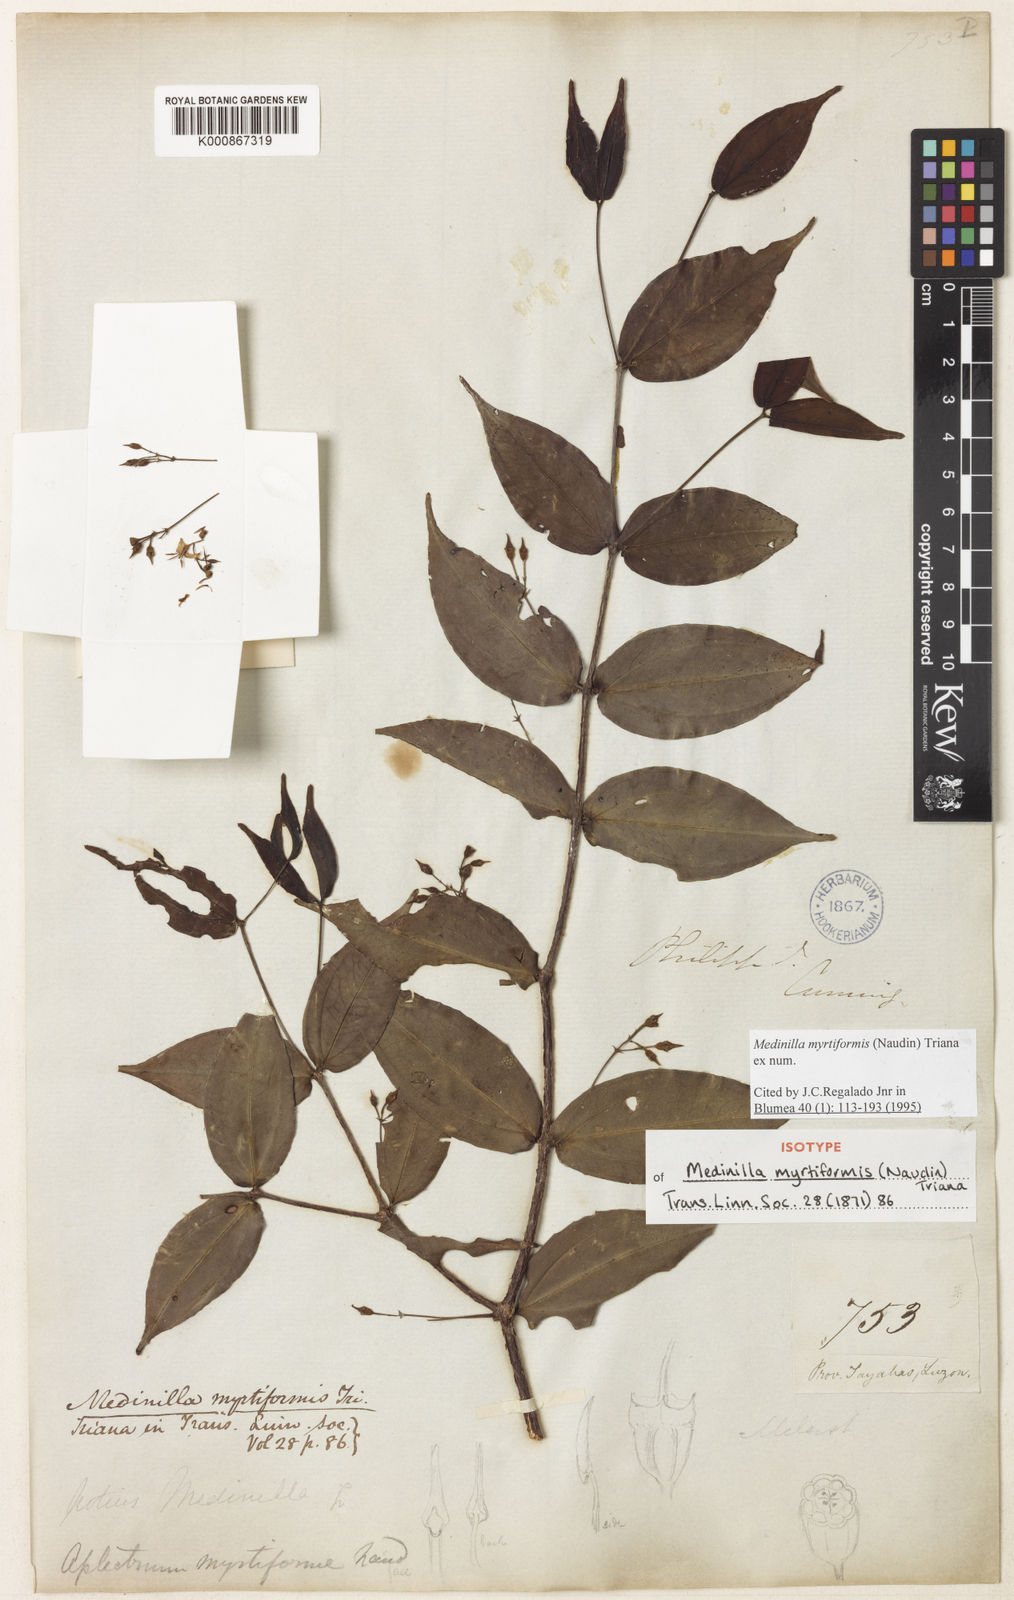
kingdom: Plantae
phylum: Tracheophyta
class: Magnoliopsida
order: Myrtales
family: Melastomataceae
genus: Medinilla
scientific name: Medinilla myrtiformis
